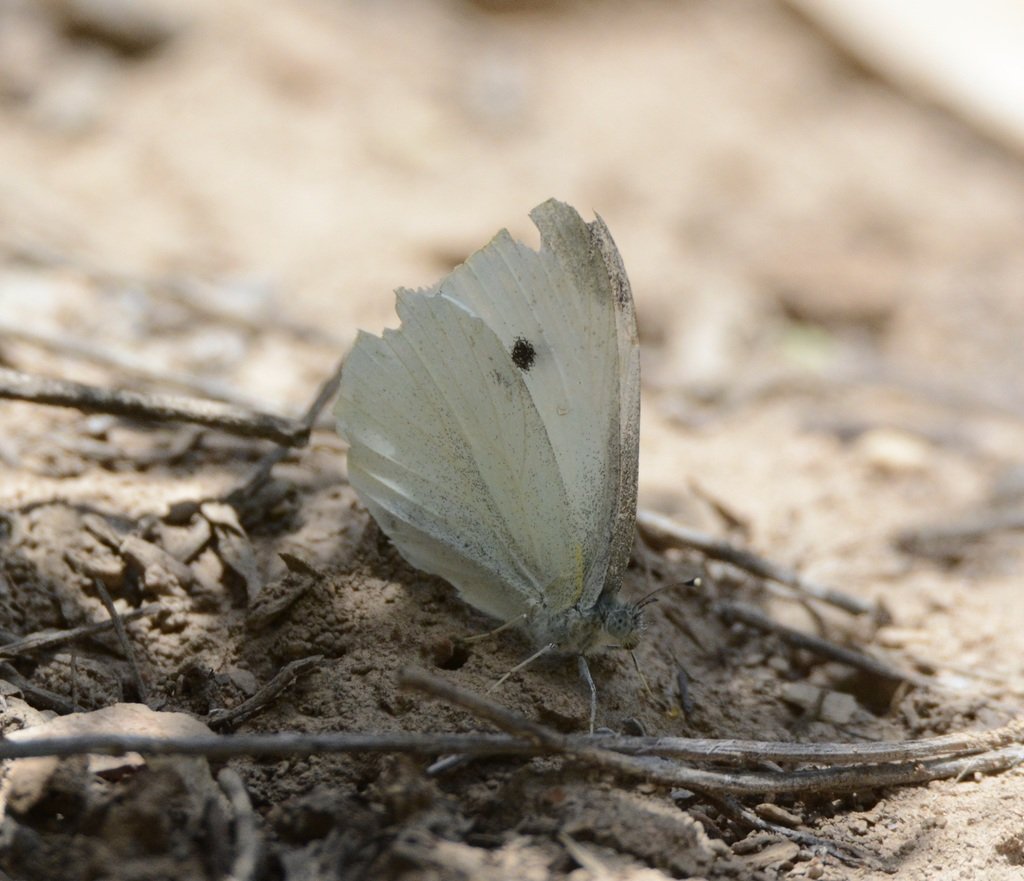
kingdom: Animalia
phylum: Arthropoda
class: Insecta
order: Lepidoptera
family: Pieridae
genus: Pieris
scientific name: Pieris rapae
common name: Cabbage White
